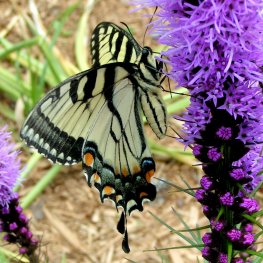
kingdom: Animalia
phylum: Arthropoda
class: Insecta
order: Lepidoptera
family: Papilionidae
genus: Pterourus
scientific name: Pterourus glaucus
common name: Eastern Tiger Swallowtail
